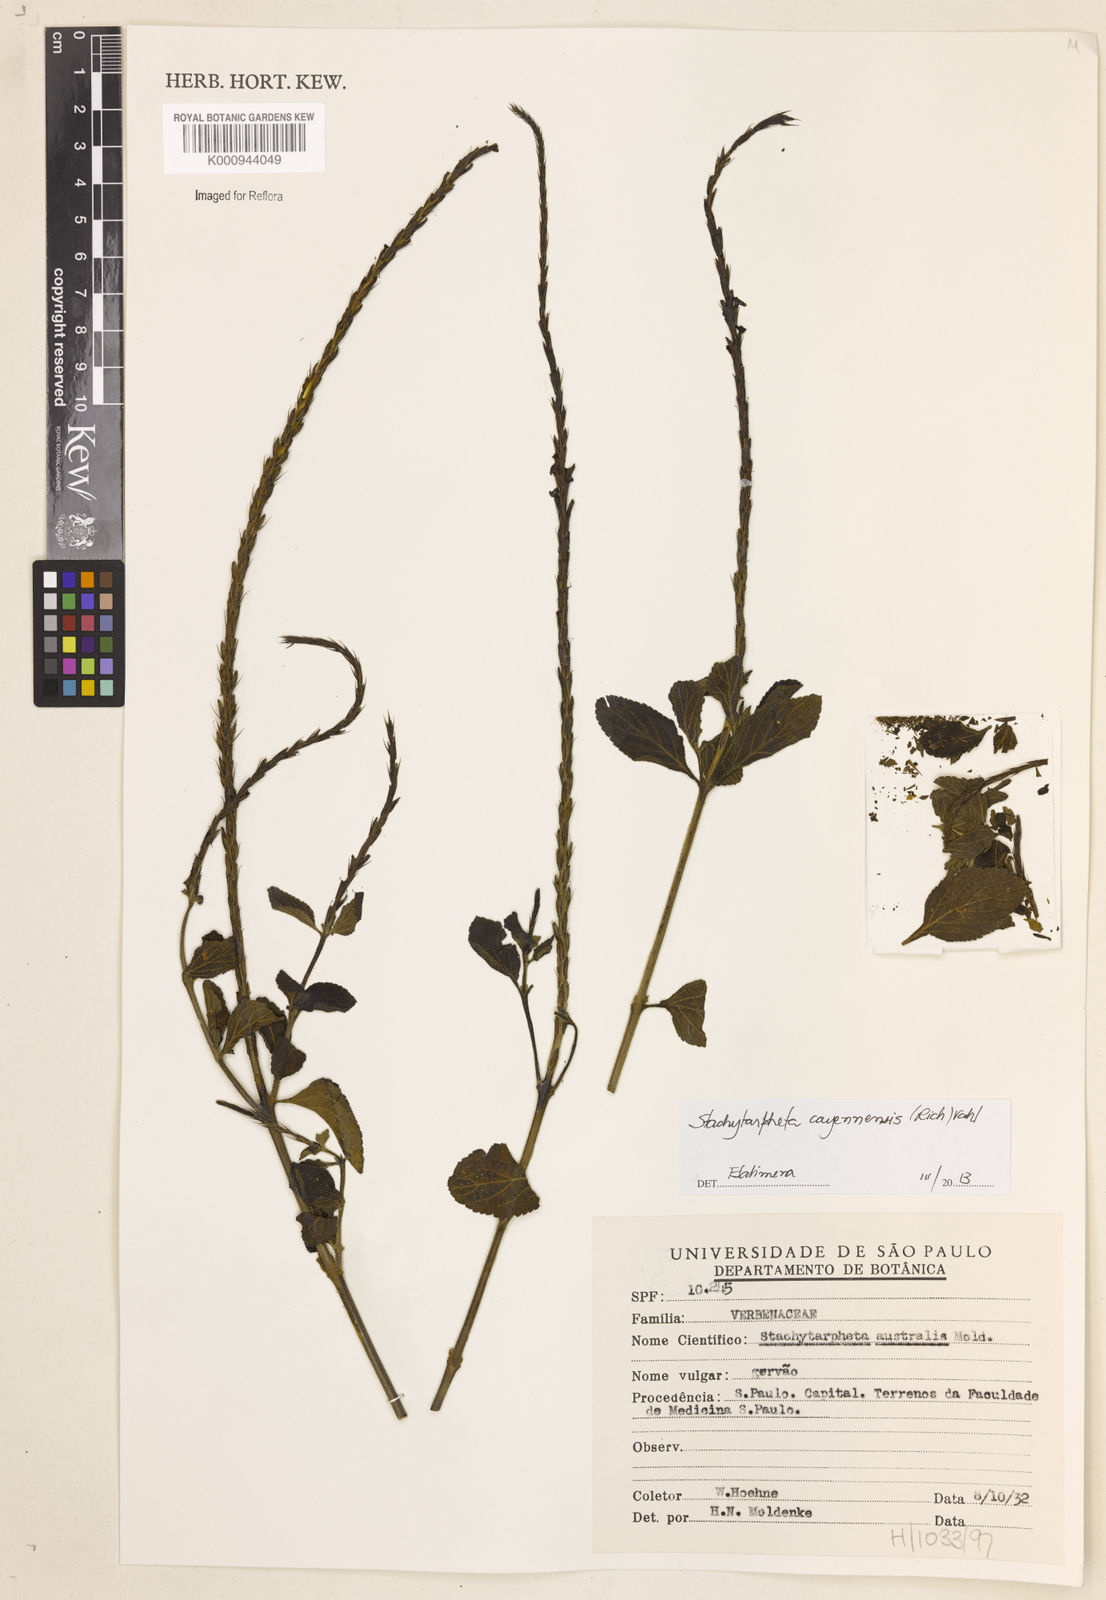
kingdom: Plantae
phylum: Tracheophyta
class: Magnoliopsida
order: Lamiales
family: Verbenaceae
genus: Aloysia
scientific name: Aloysia
